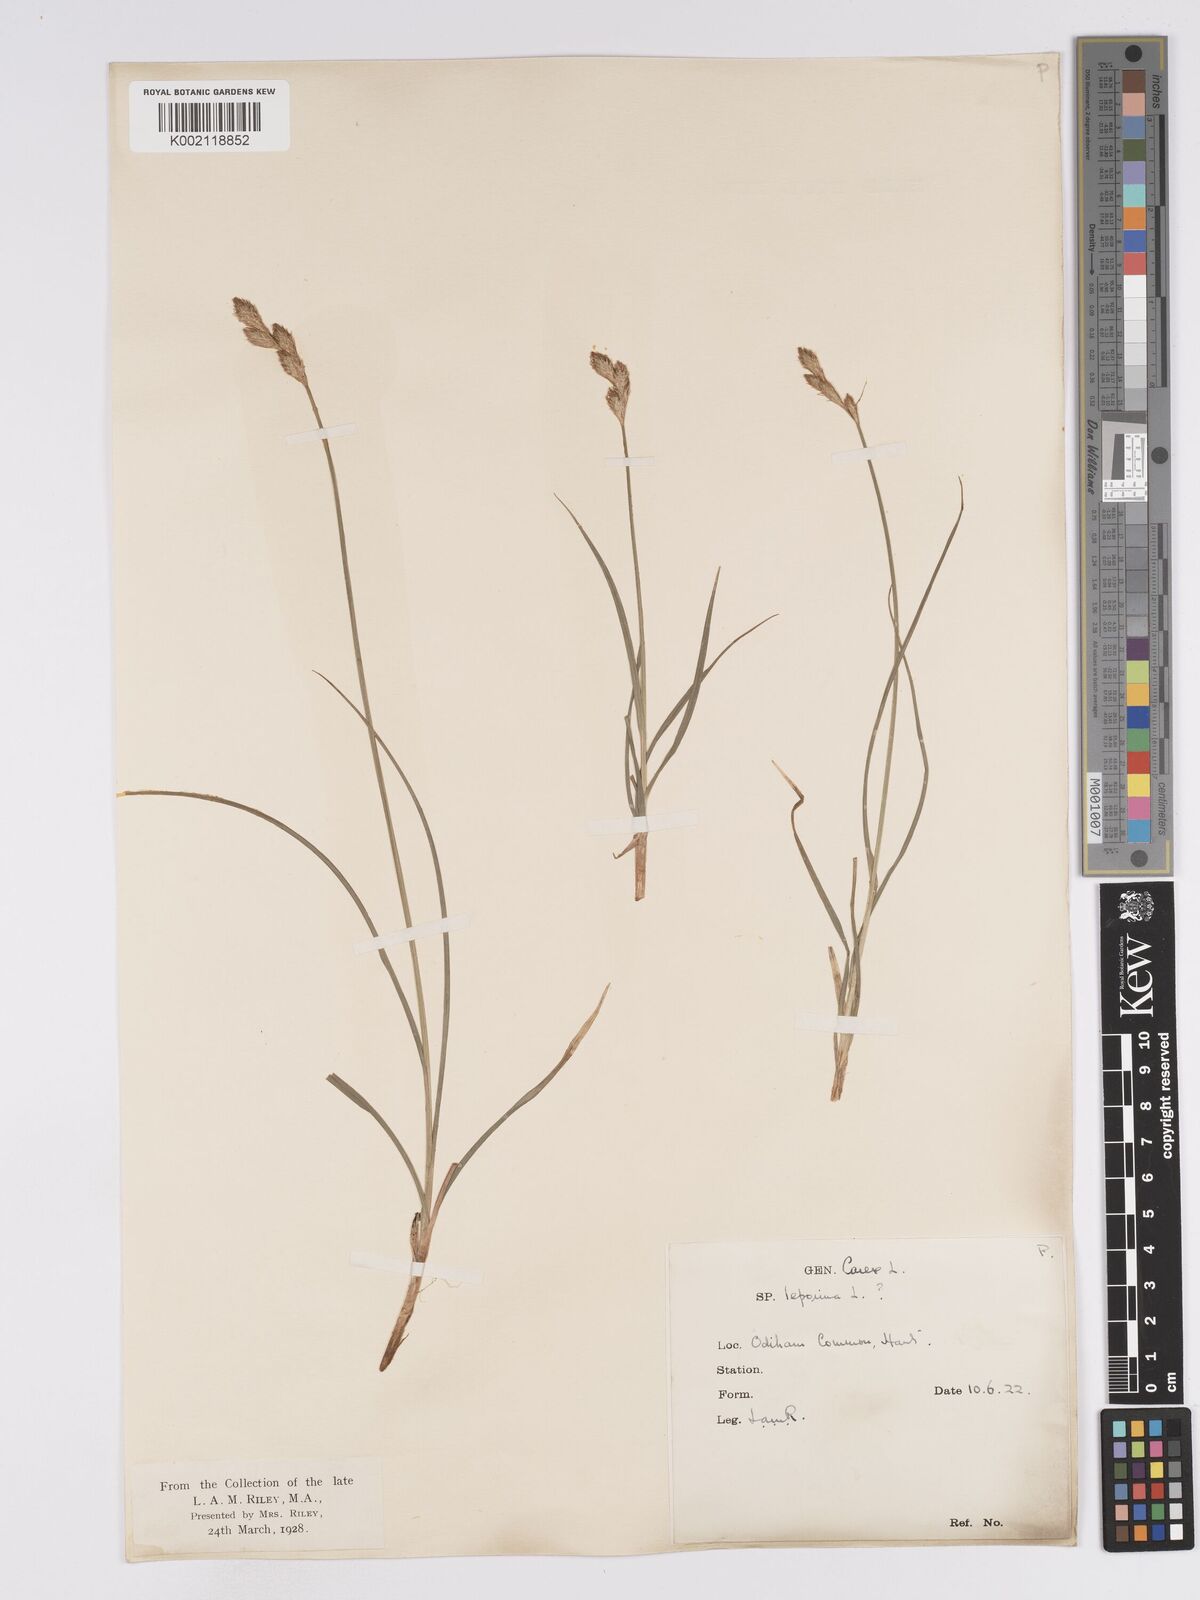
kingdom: Plantae
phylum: Tracheophyta
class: Liliopsida
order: Poales
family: Cyperaceae
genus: Carex
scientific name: Carex leporina
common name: Oval sedge
